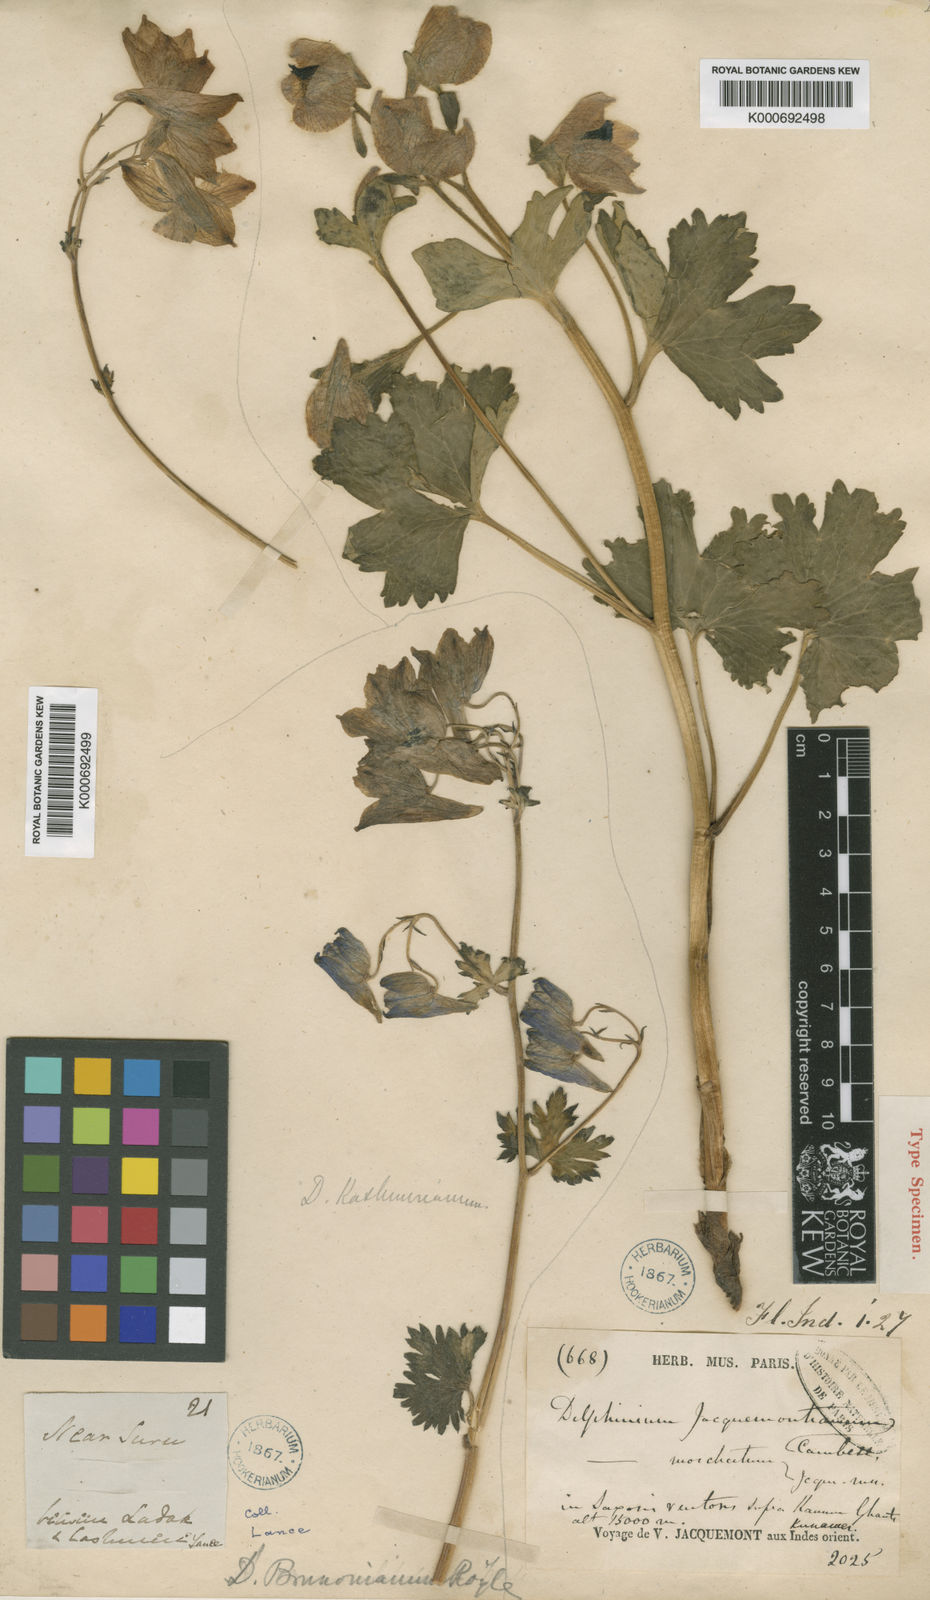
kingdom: Plantae
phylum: Tracheophyta
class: Magnoliopsida
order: Ranunculales
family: Ranunculaceae
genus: Delphinium
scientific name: Delphinium brunonianum
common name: Musk larkspur
